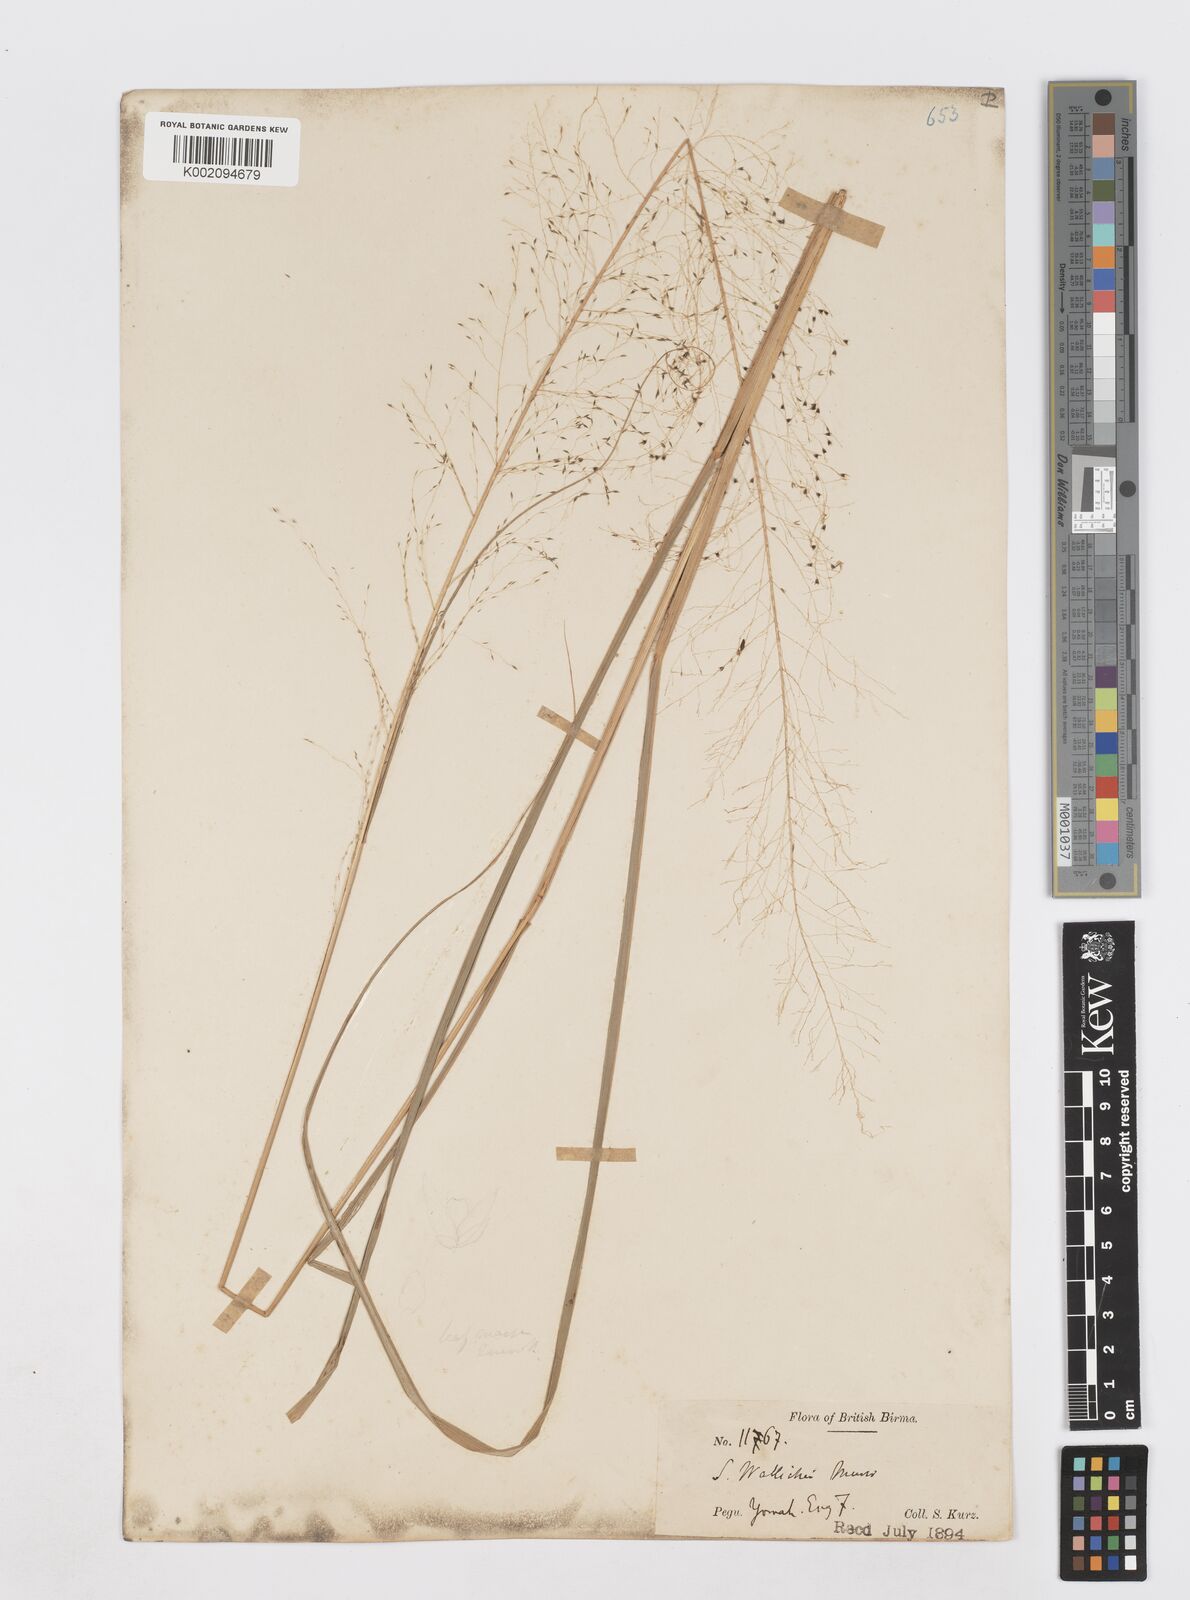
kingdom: Plantae
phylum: Tracheophyta
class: Liliopsida
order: Poales
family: Poaceae
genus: Sporobolus
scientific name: Sporobolus wallichii
